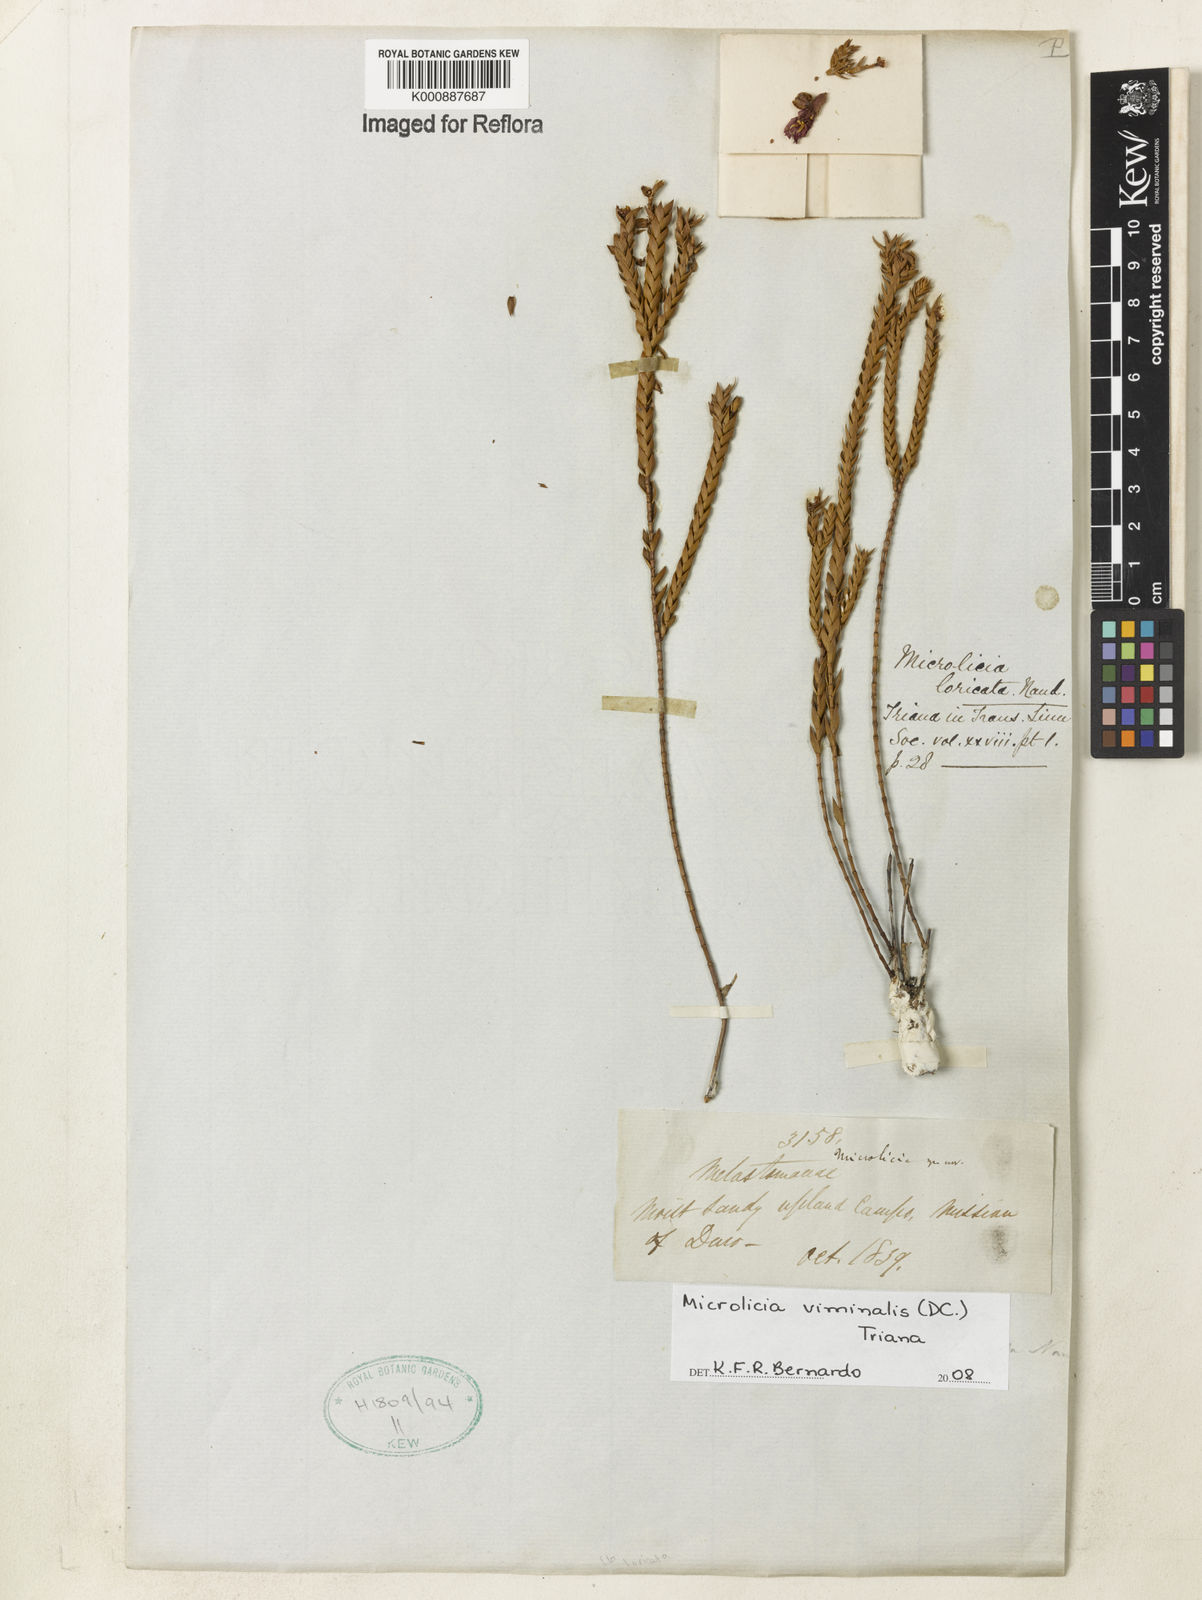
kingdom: Plantae
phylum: Tracheophyta
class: Magnoliopsida
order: Myrtales
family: Melastomataceae
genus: Microlicia
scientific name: Microlicia viminalis
